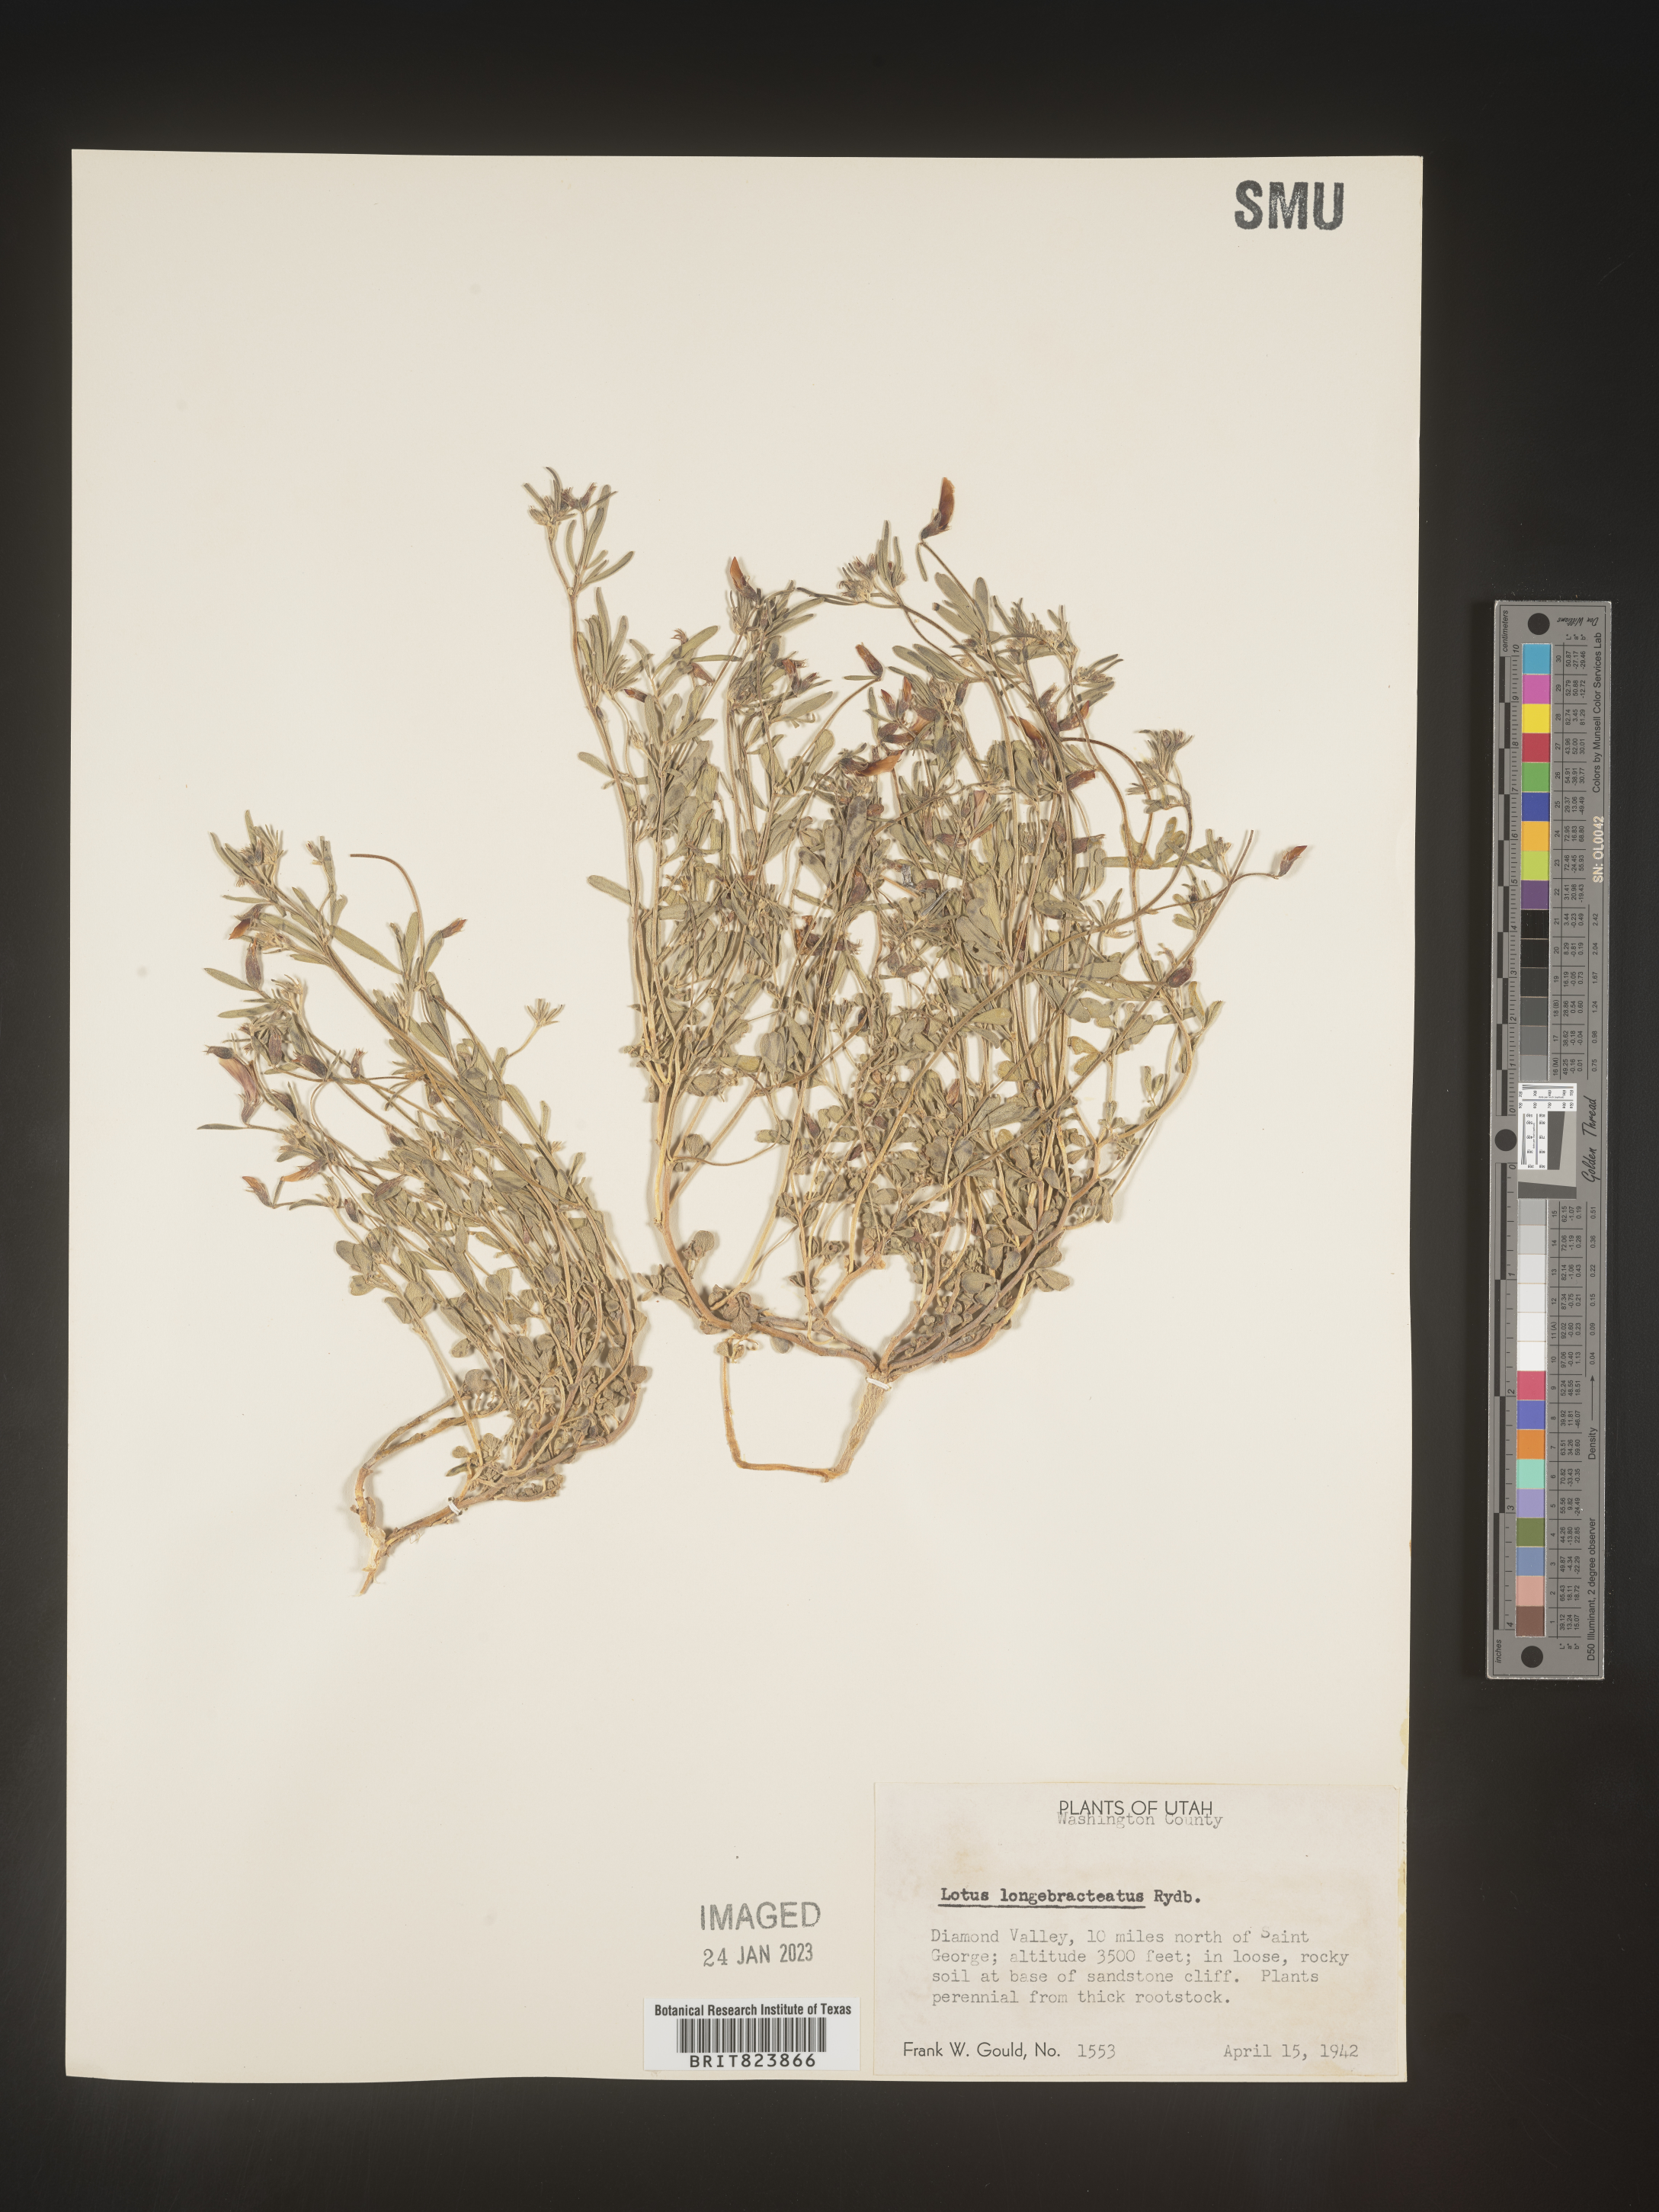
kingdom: Plantae
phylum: Tracheophyta
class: Magnoliopsida
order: Fabales
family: Fabaceae
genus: Lotus
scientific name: Lotus
